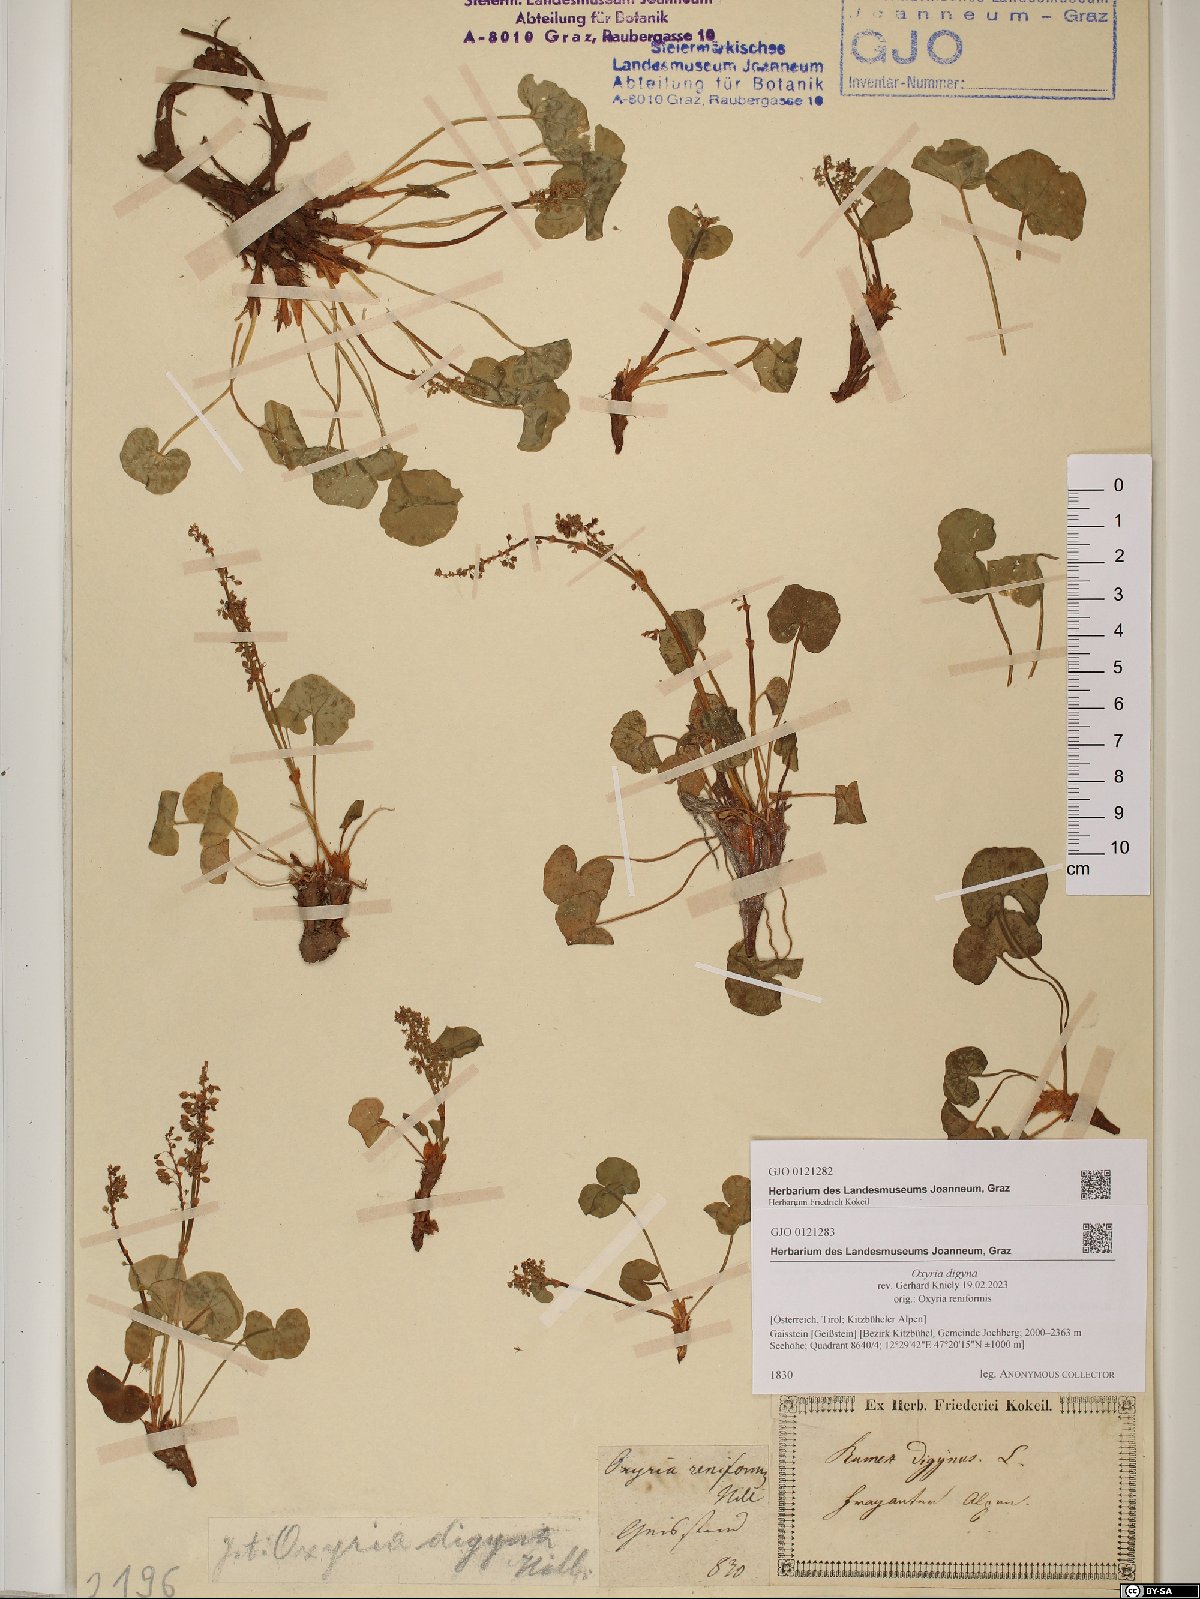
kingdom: Plantae
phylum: Tracheophyta
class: Magnoliopsida
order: Caryophyllales
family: Polygonaceae
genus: Oxyria
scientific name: Oxyria digyna
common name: Alpine mountain-sorrel
